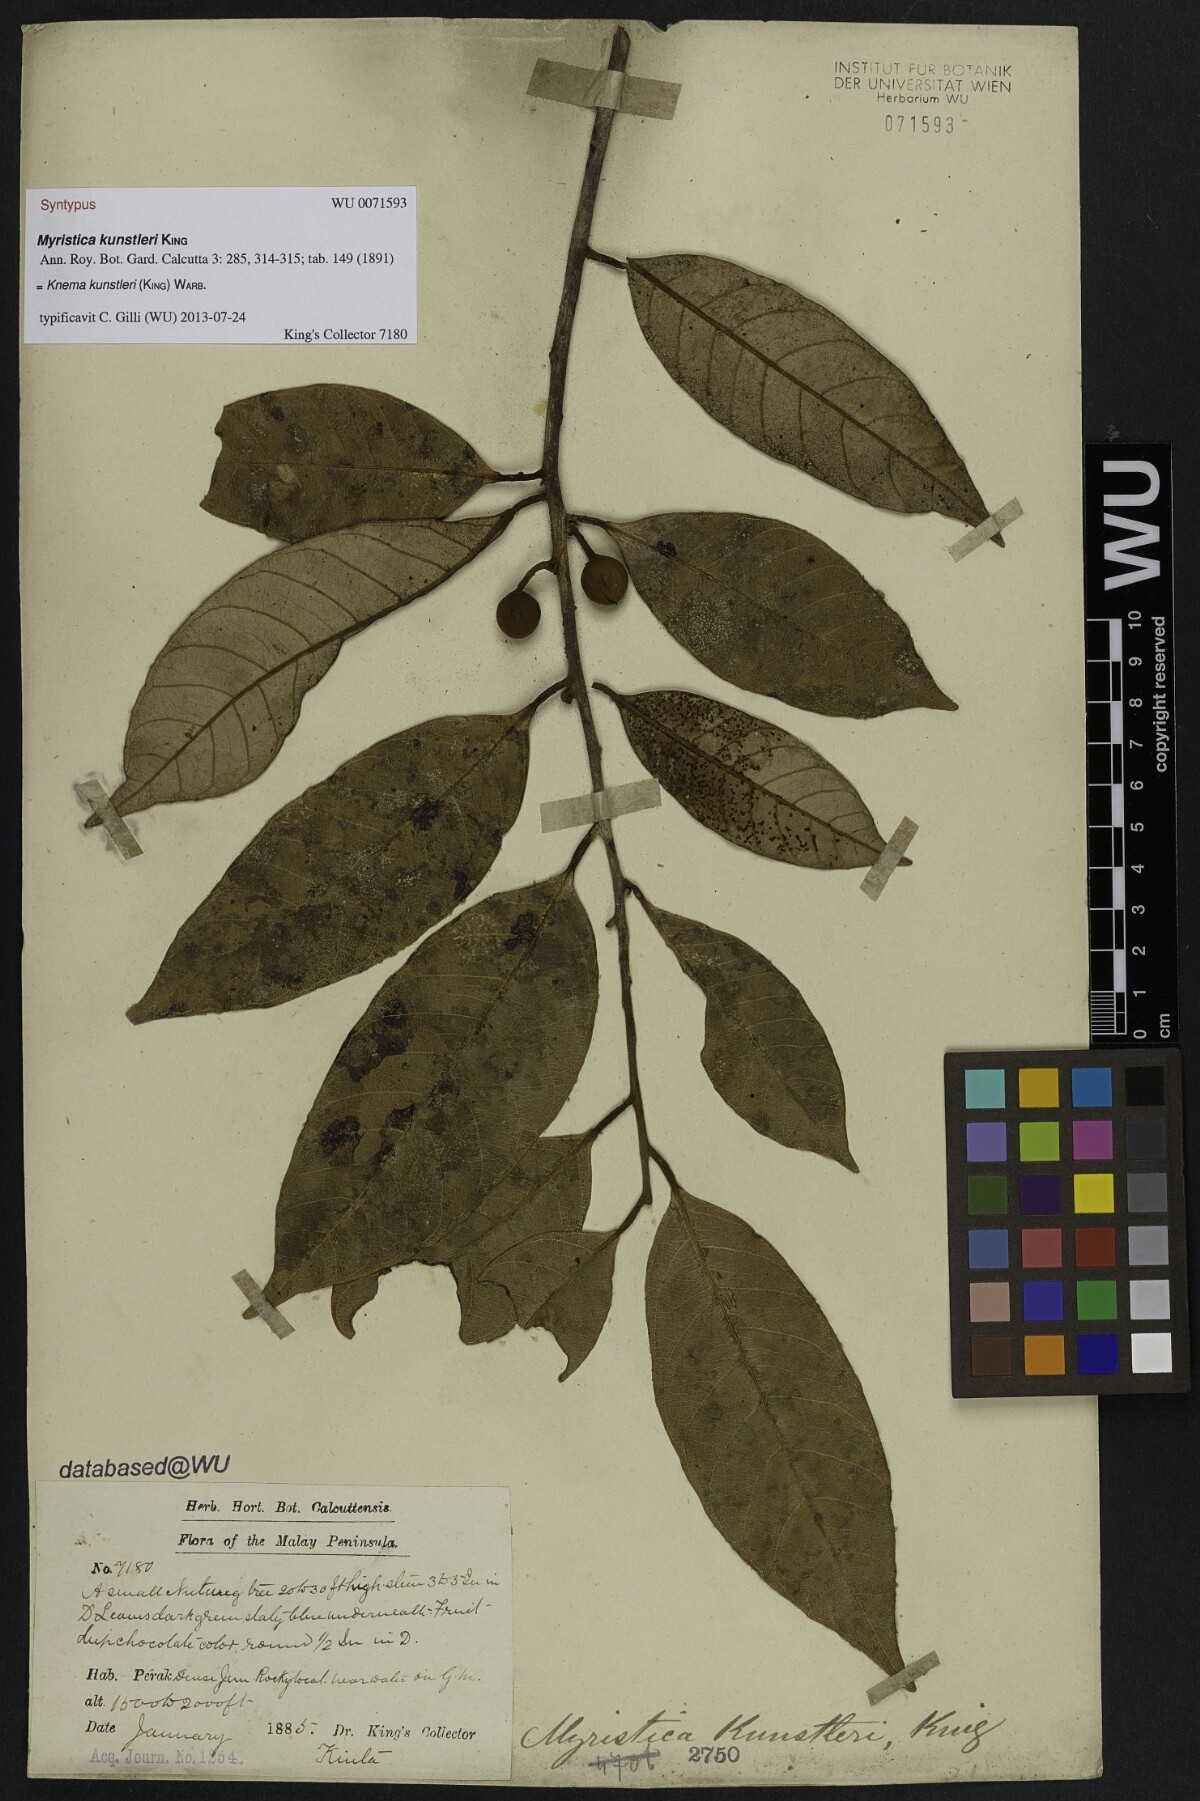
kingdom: Plantae
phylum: Tracheophyta
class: Magnoliopsida
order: Magnoliales
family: Myristicaceae
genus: Knema
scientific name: Knema kunstleri
